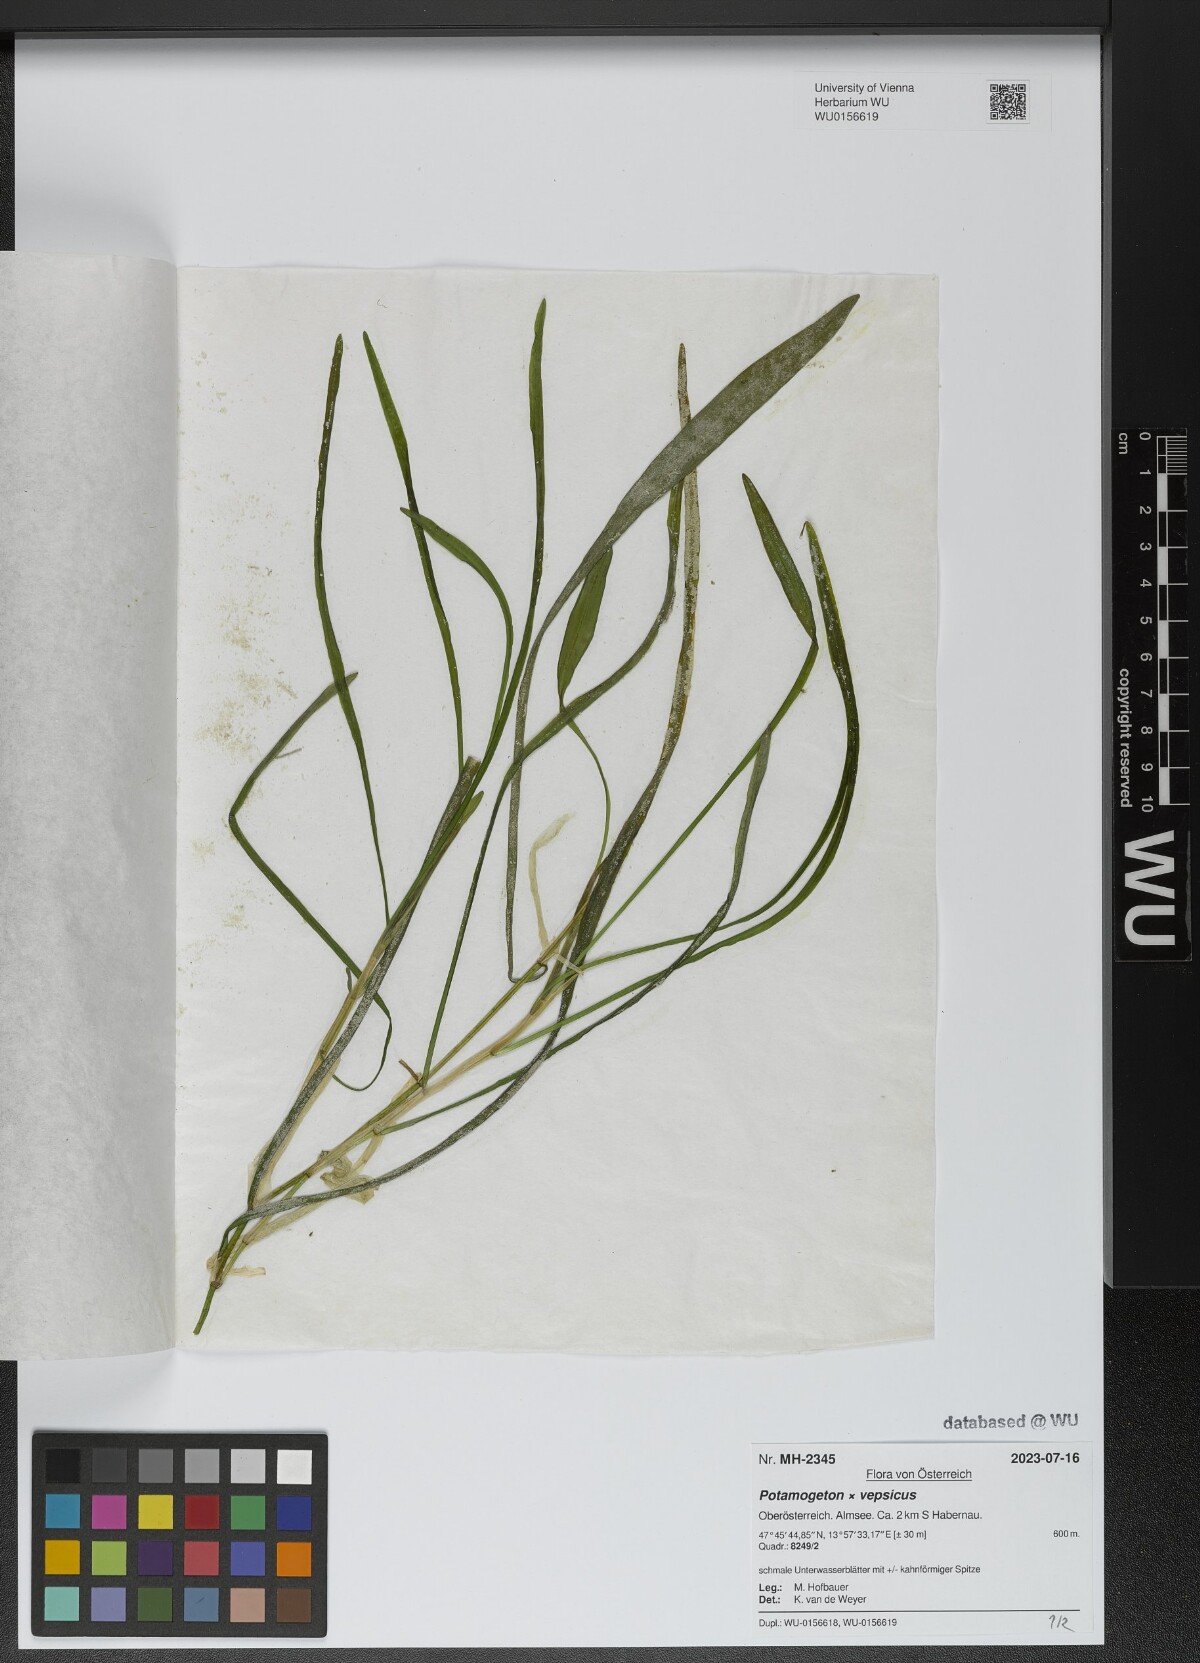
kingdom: Plantae
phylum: Tracheophyta
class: Liliopsida
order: Alismatales
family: Potamogetonaceae
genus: Potamogeton
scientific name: Potamogeton vepsicus
